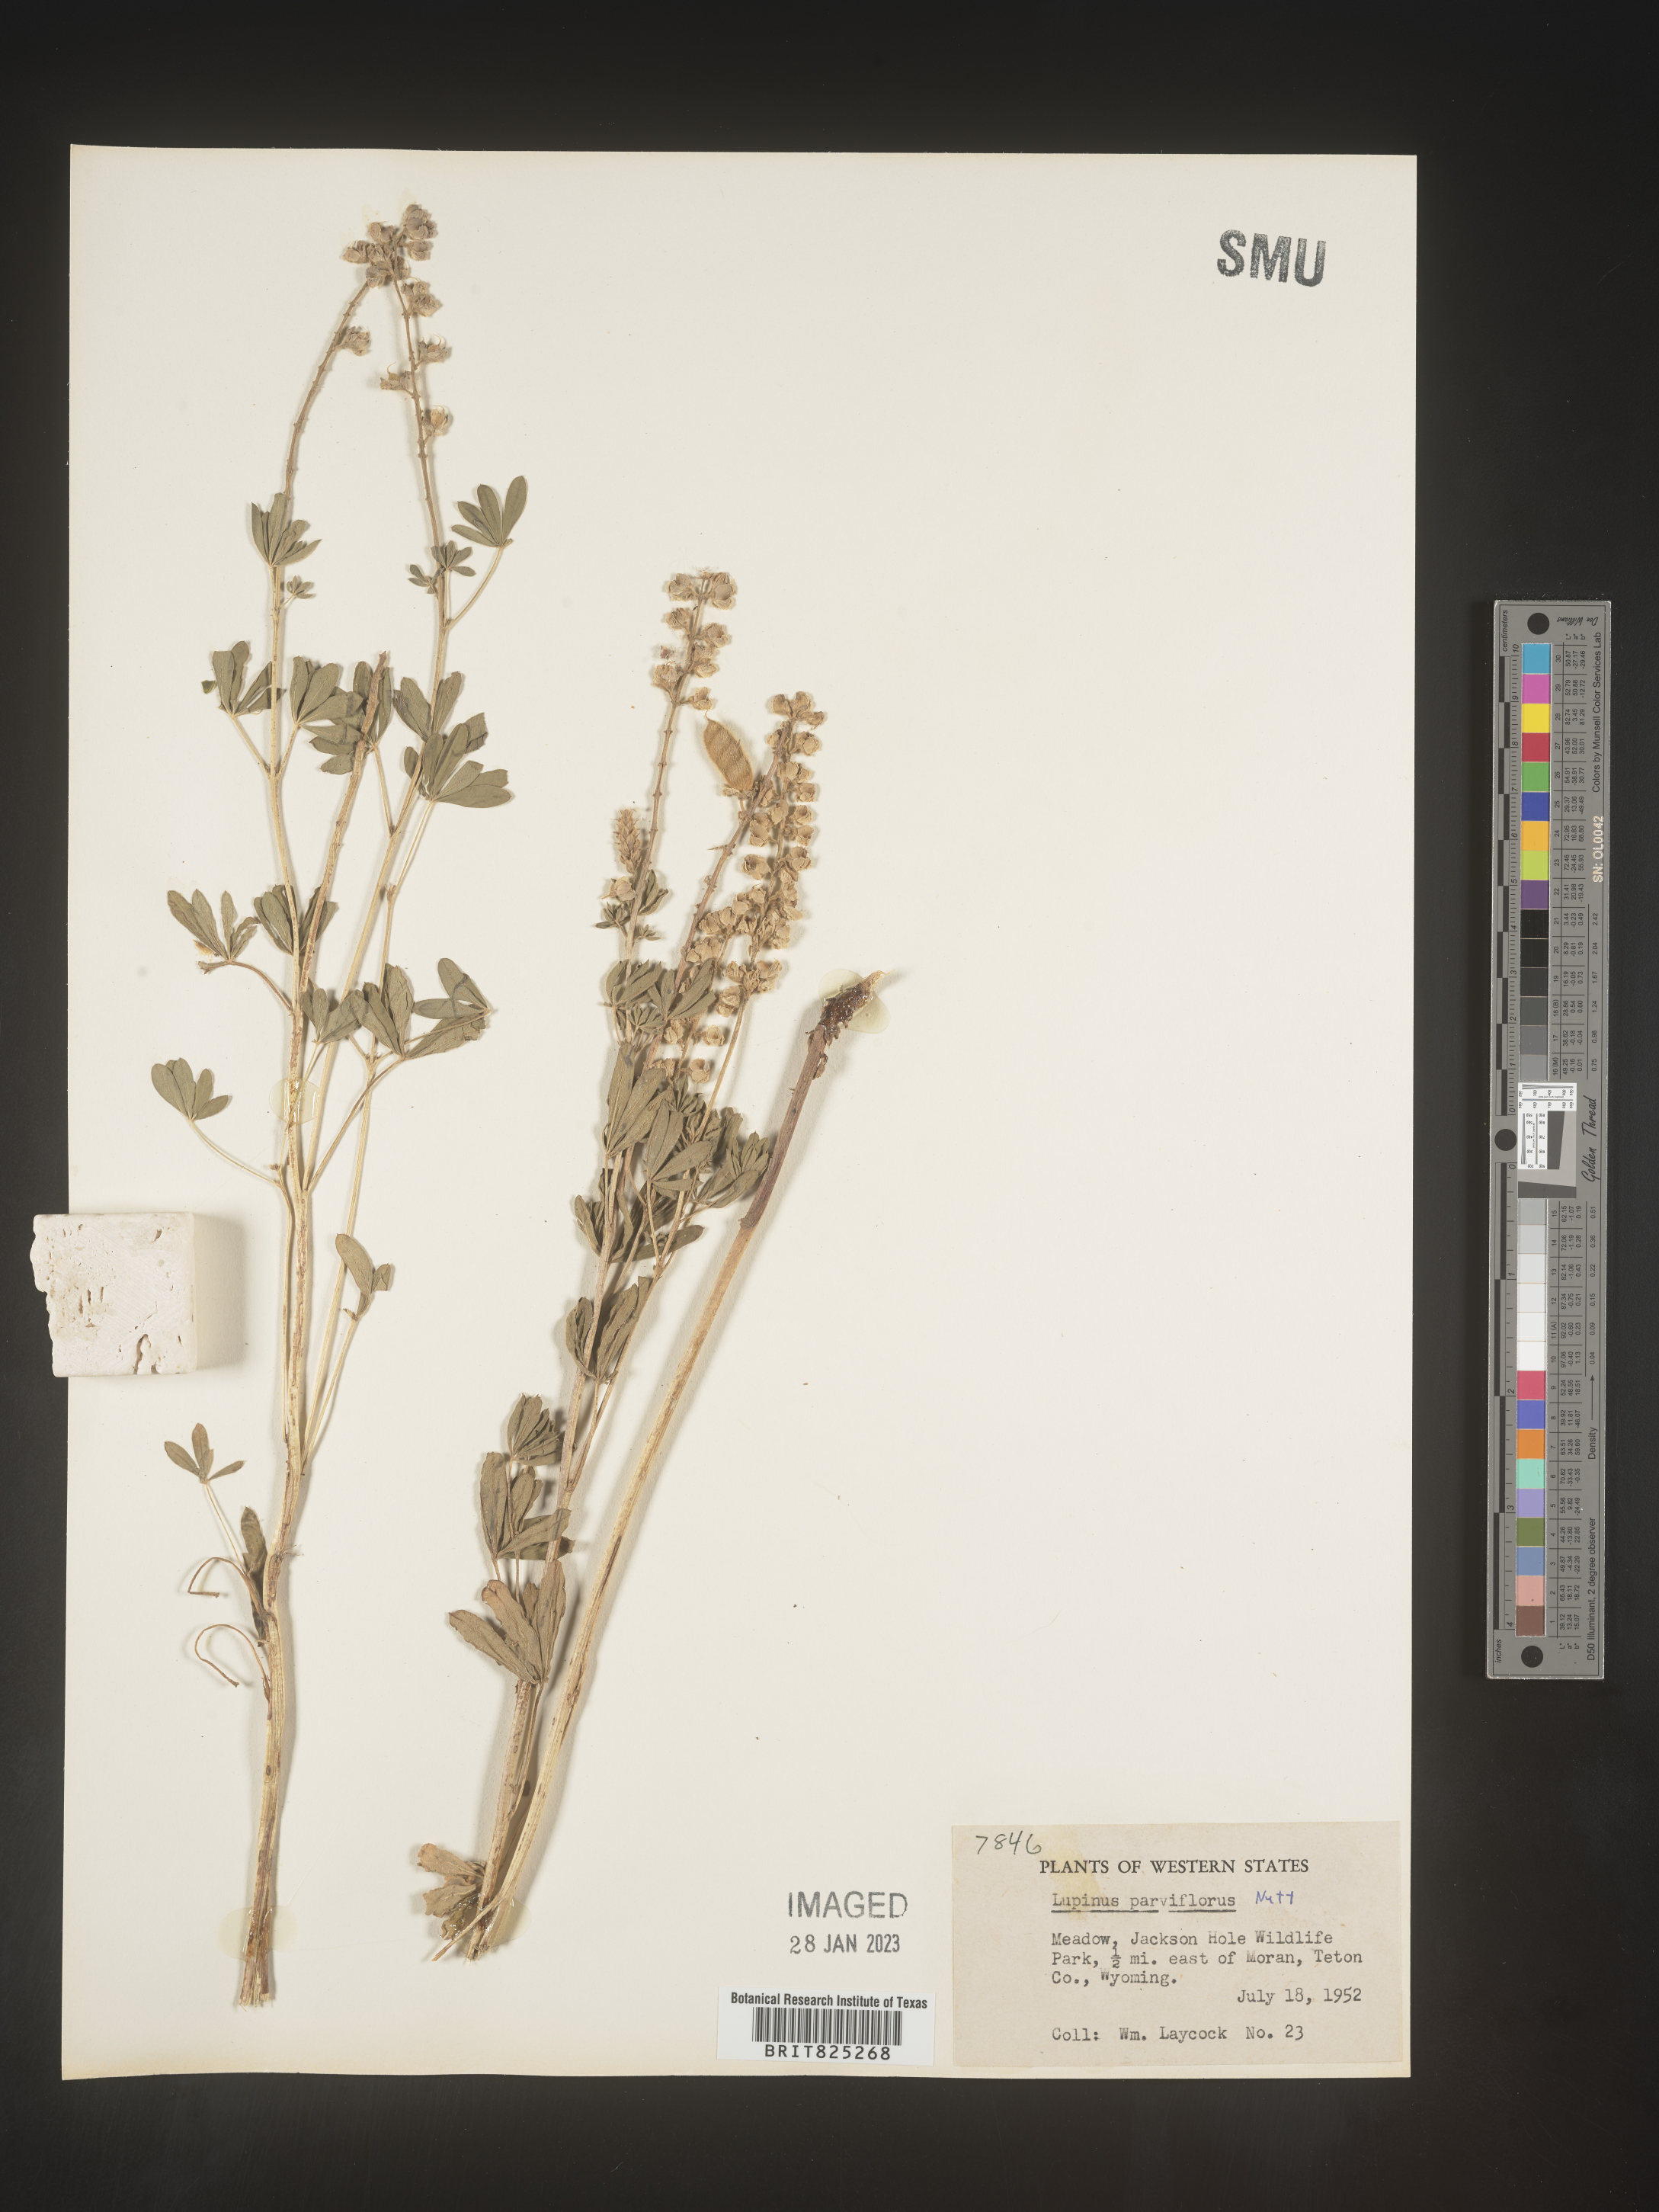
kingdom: Plantae
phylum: Tracheophyta
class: Magnoliopsida
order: Fabales
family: Fabaceae
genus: Lupinus
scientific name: Lupinus
